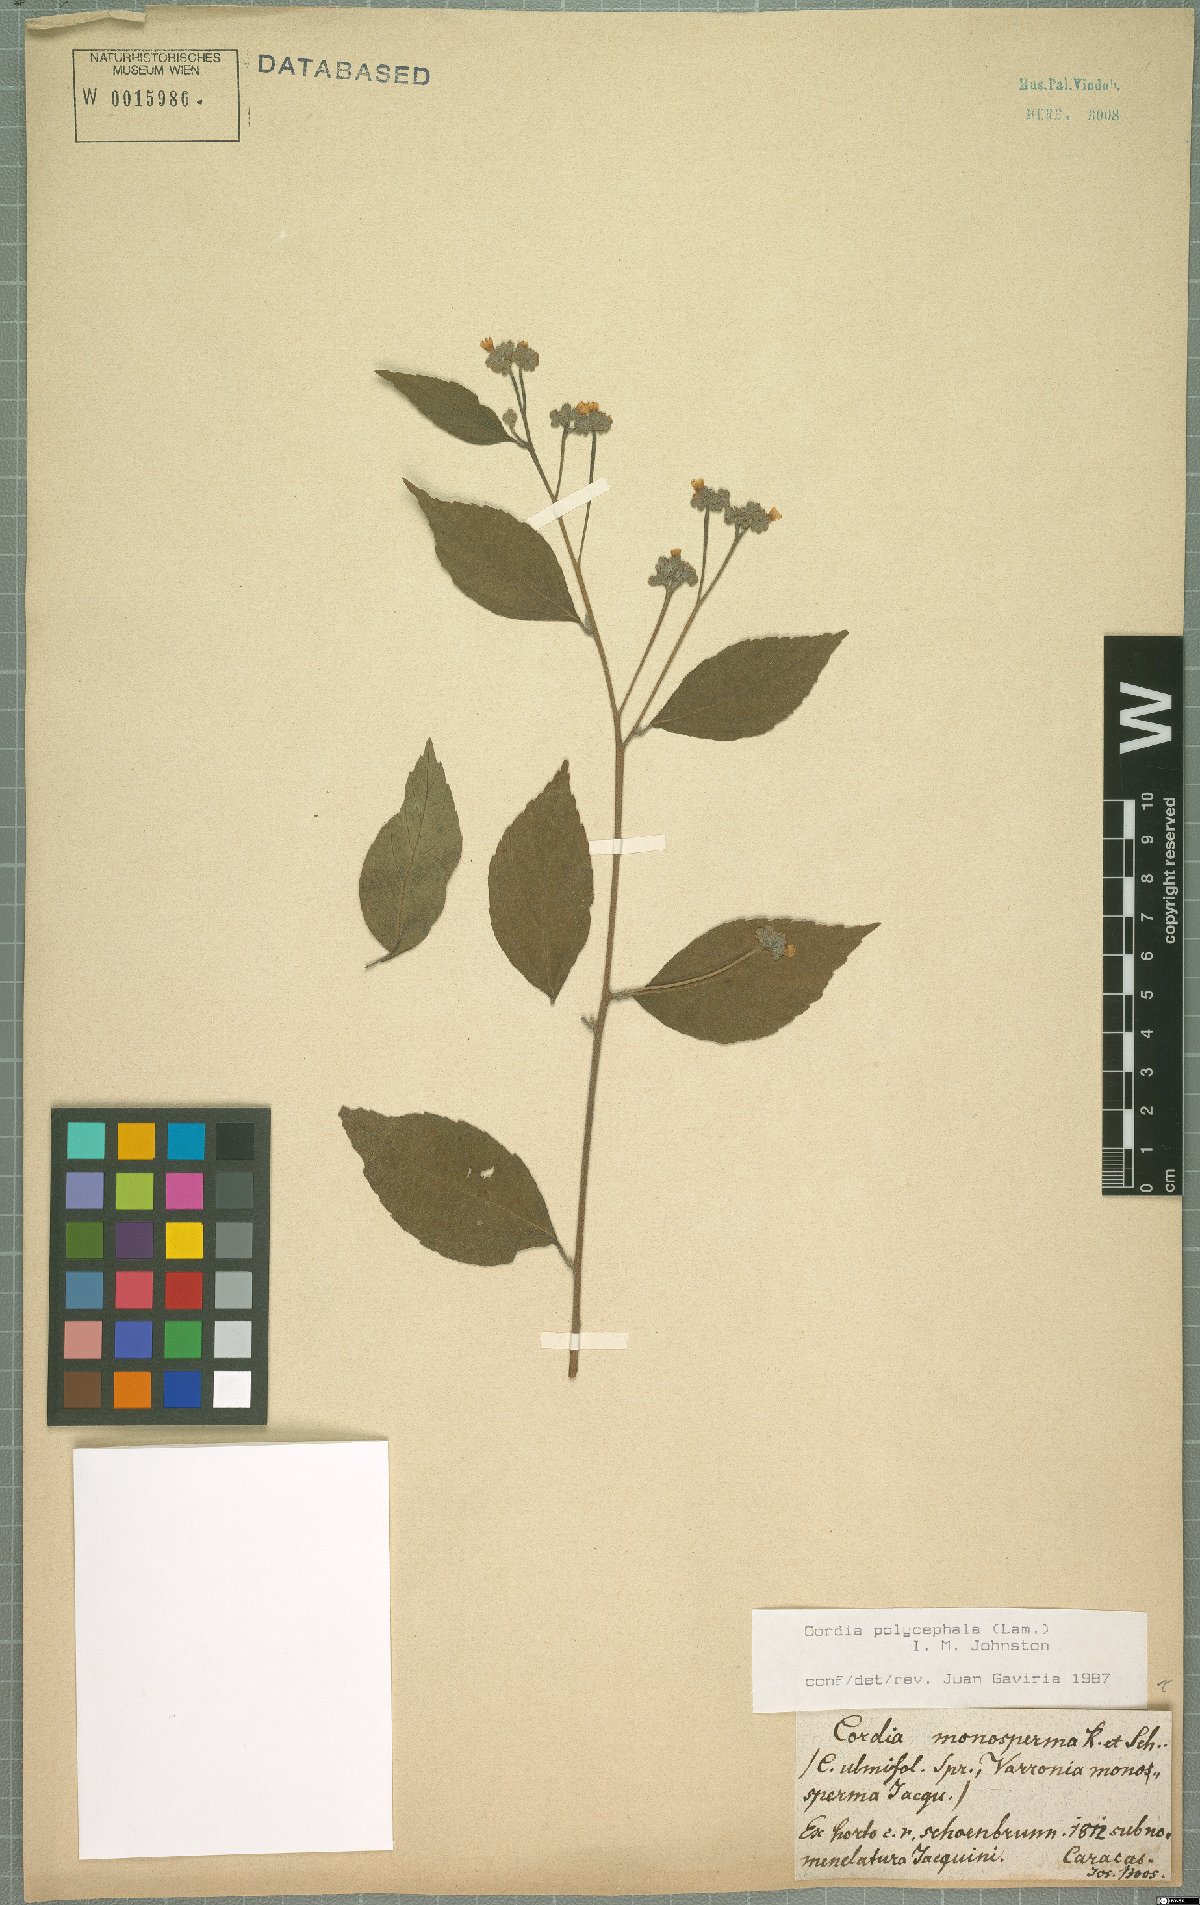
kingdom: Plantae
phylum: Tracheophyta
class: Magnoliopsida
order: Boraginales
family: Cordiaceae
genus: Varronia
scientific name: Varronia polycephala
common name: Black-sage
